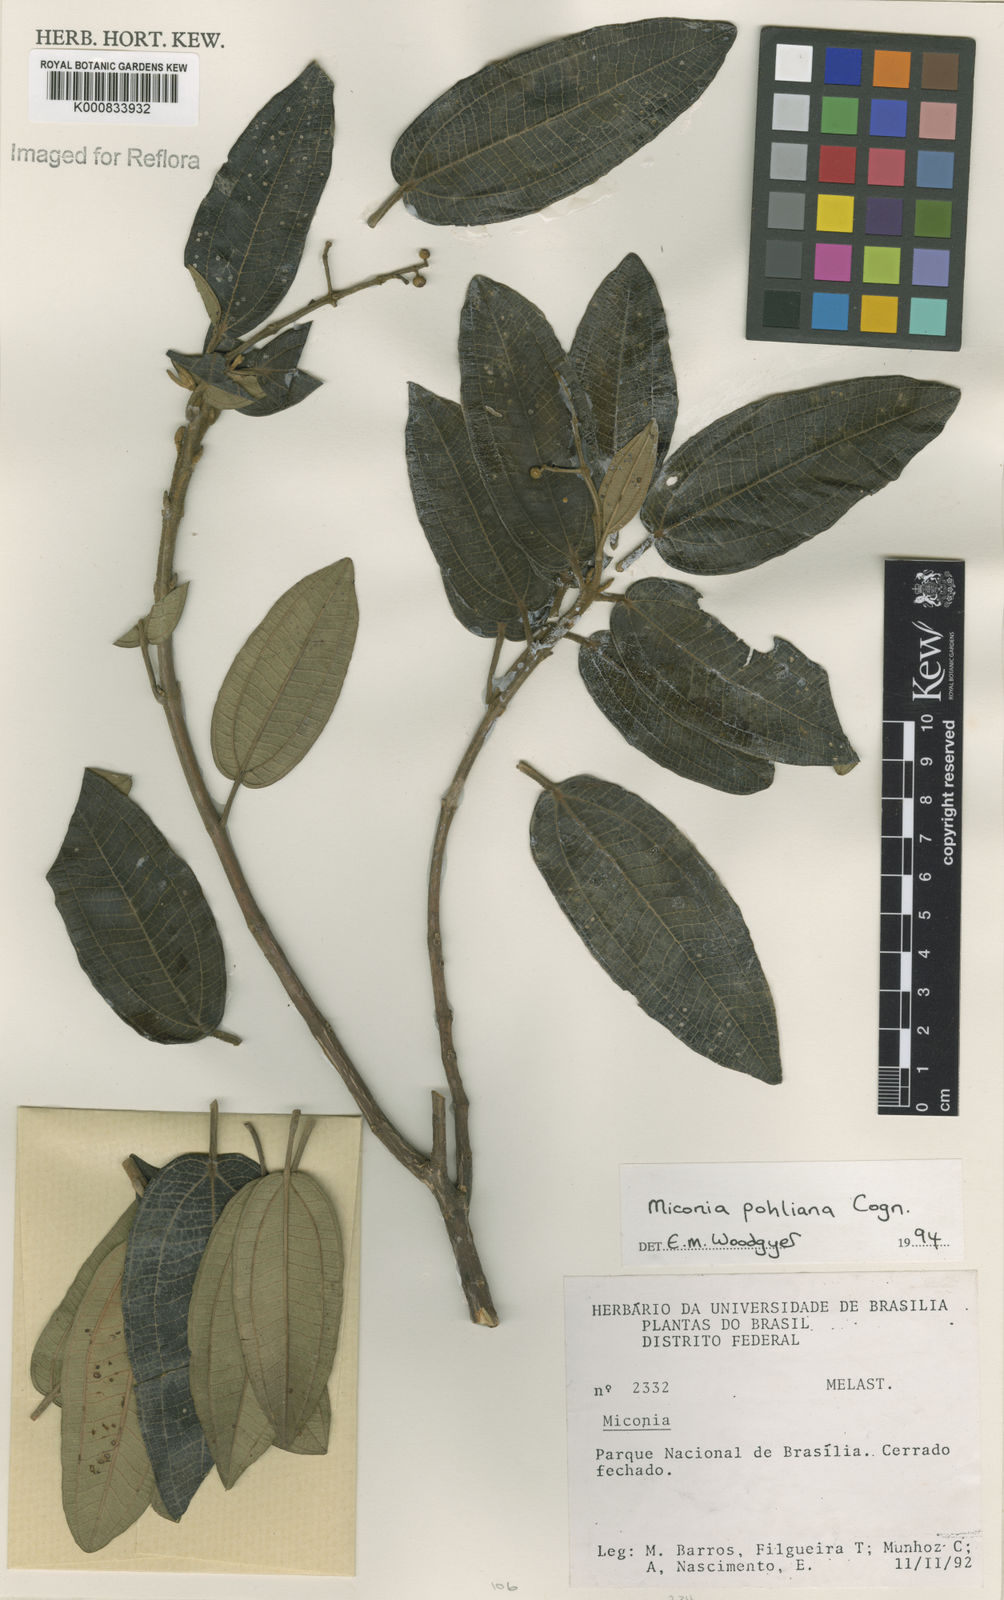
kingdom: Plantae
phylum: Tracheophyta
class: Magnoliopsida
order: Myrtales
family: Melastomataceae
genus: Miconia
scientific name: Miconia leucocarpa
